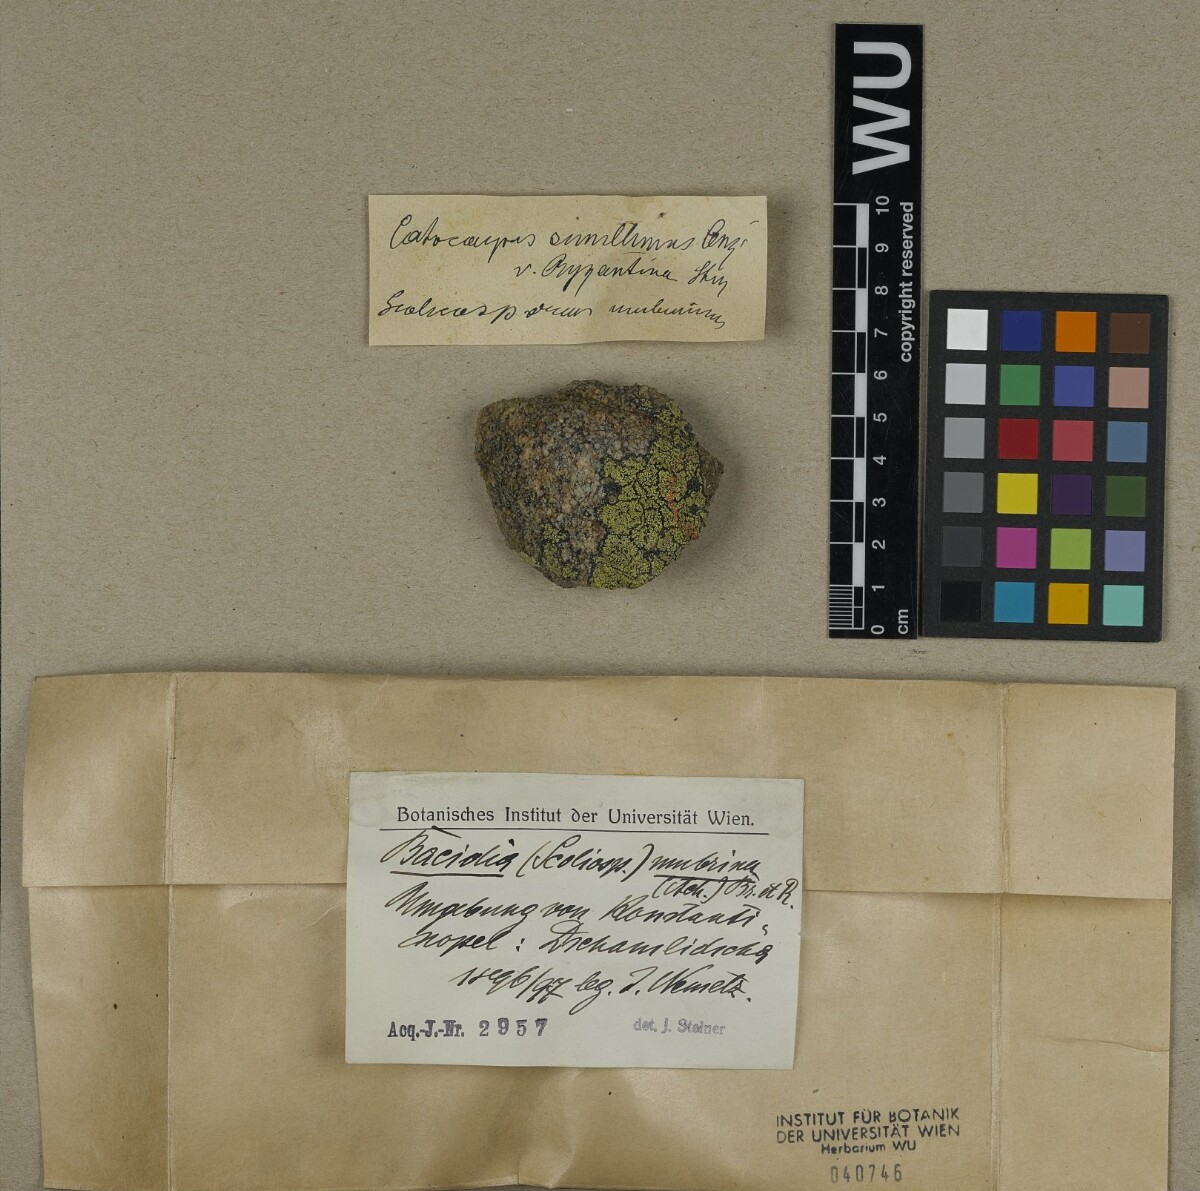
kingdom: Fungi
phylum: Ascomycota
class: Lecanoromycetes
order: Lecanorales
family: Scoliciosporaceae
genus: Scoliciosporum
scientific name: Scoliciosporum umbrinum
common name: Umber dot lichen
